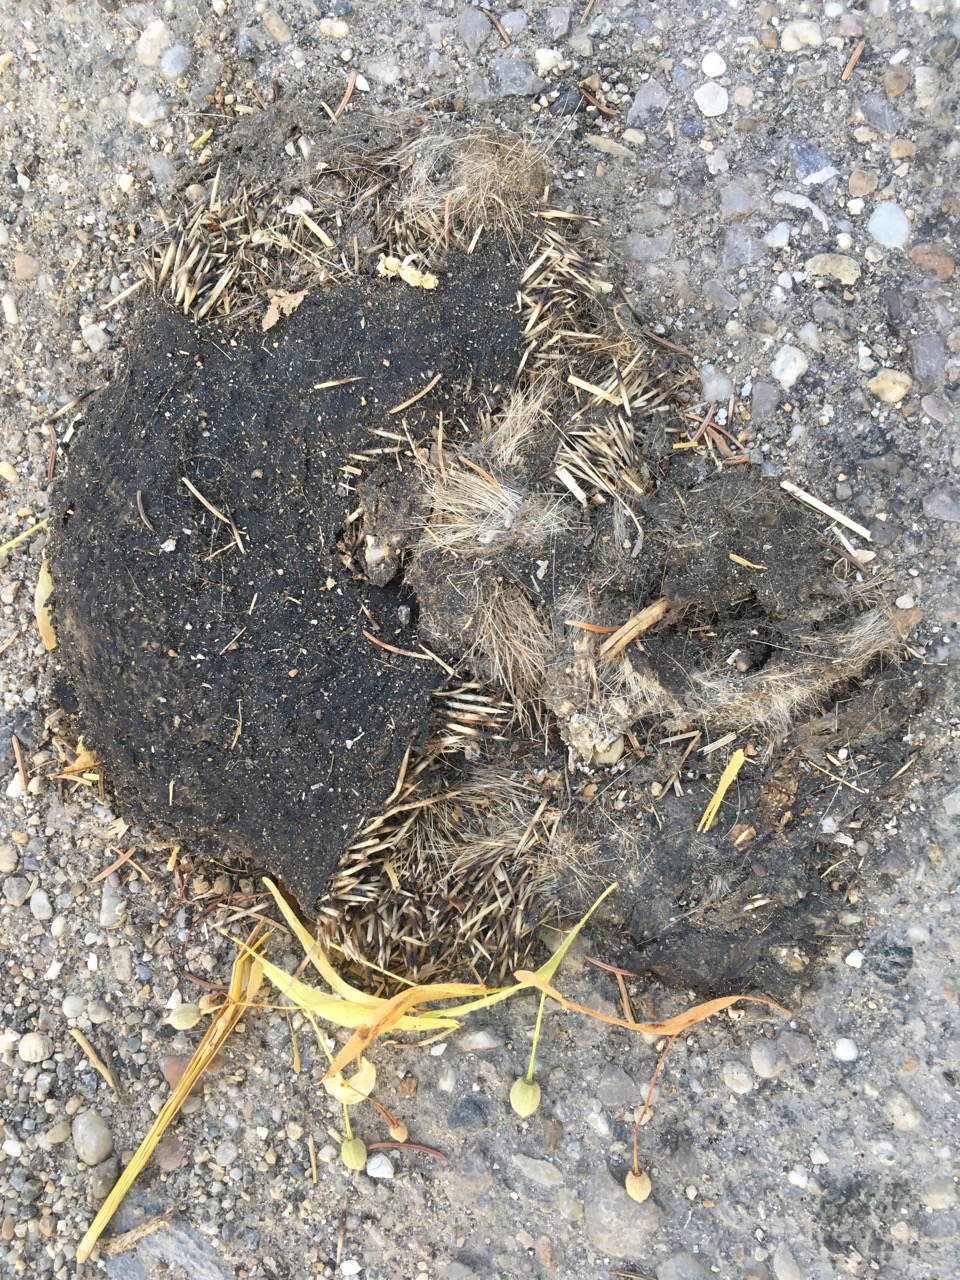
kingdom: Animalia
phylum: Chordata
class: Mammalia
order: Erinaceomorpha
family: Erinaceidae
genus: Erinaceus
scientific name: Erinaceus
